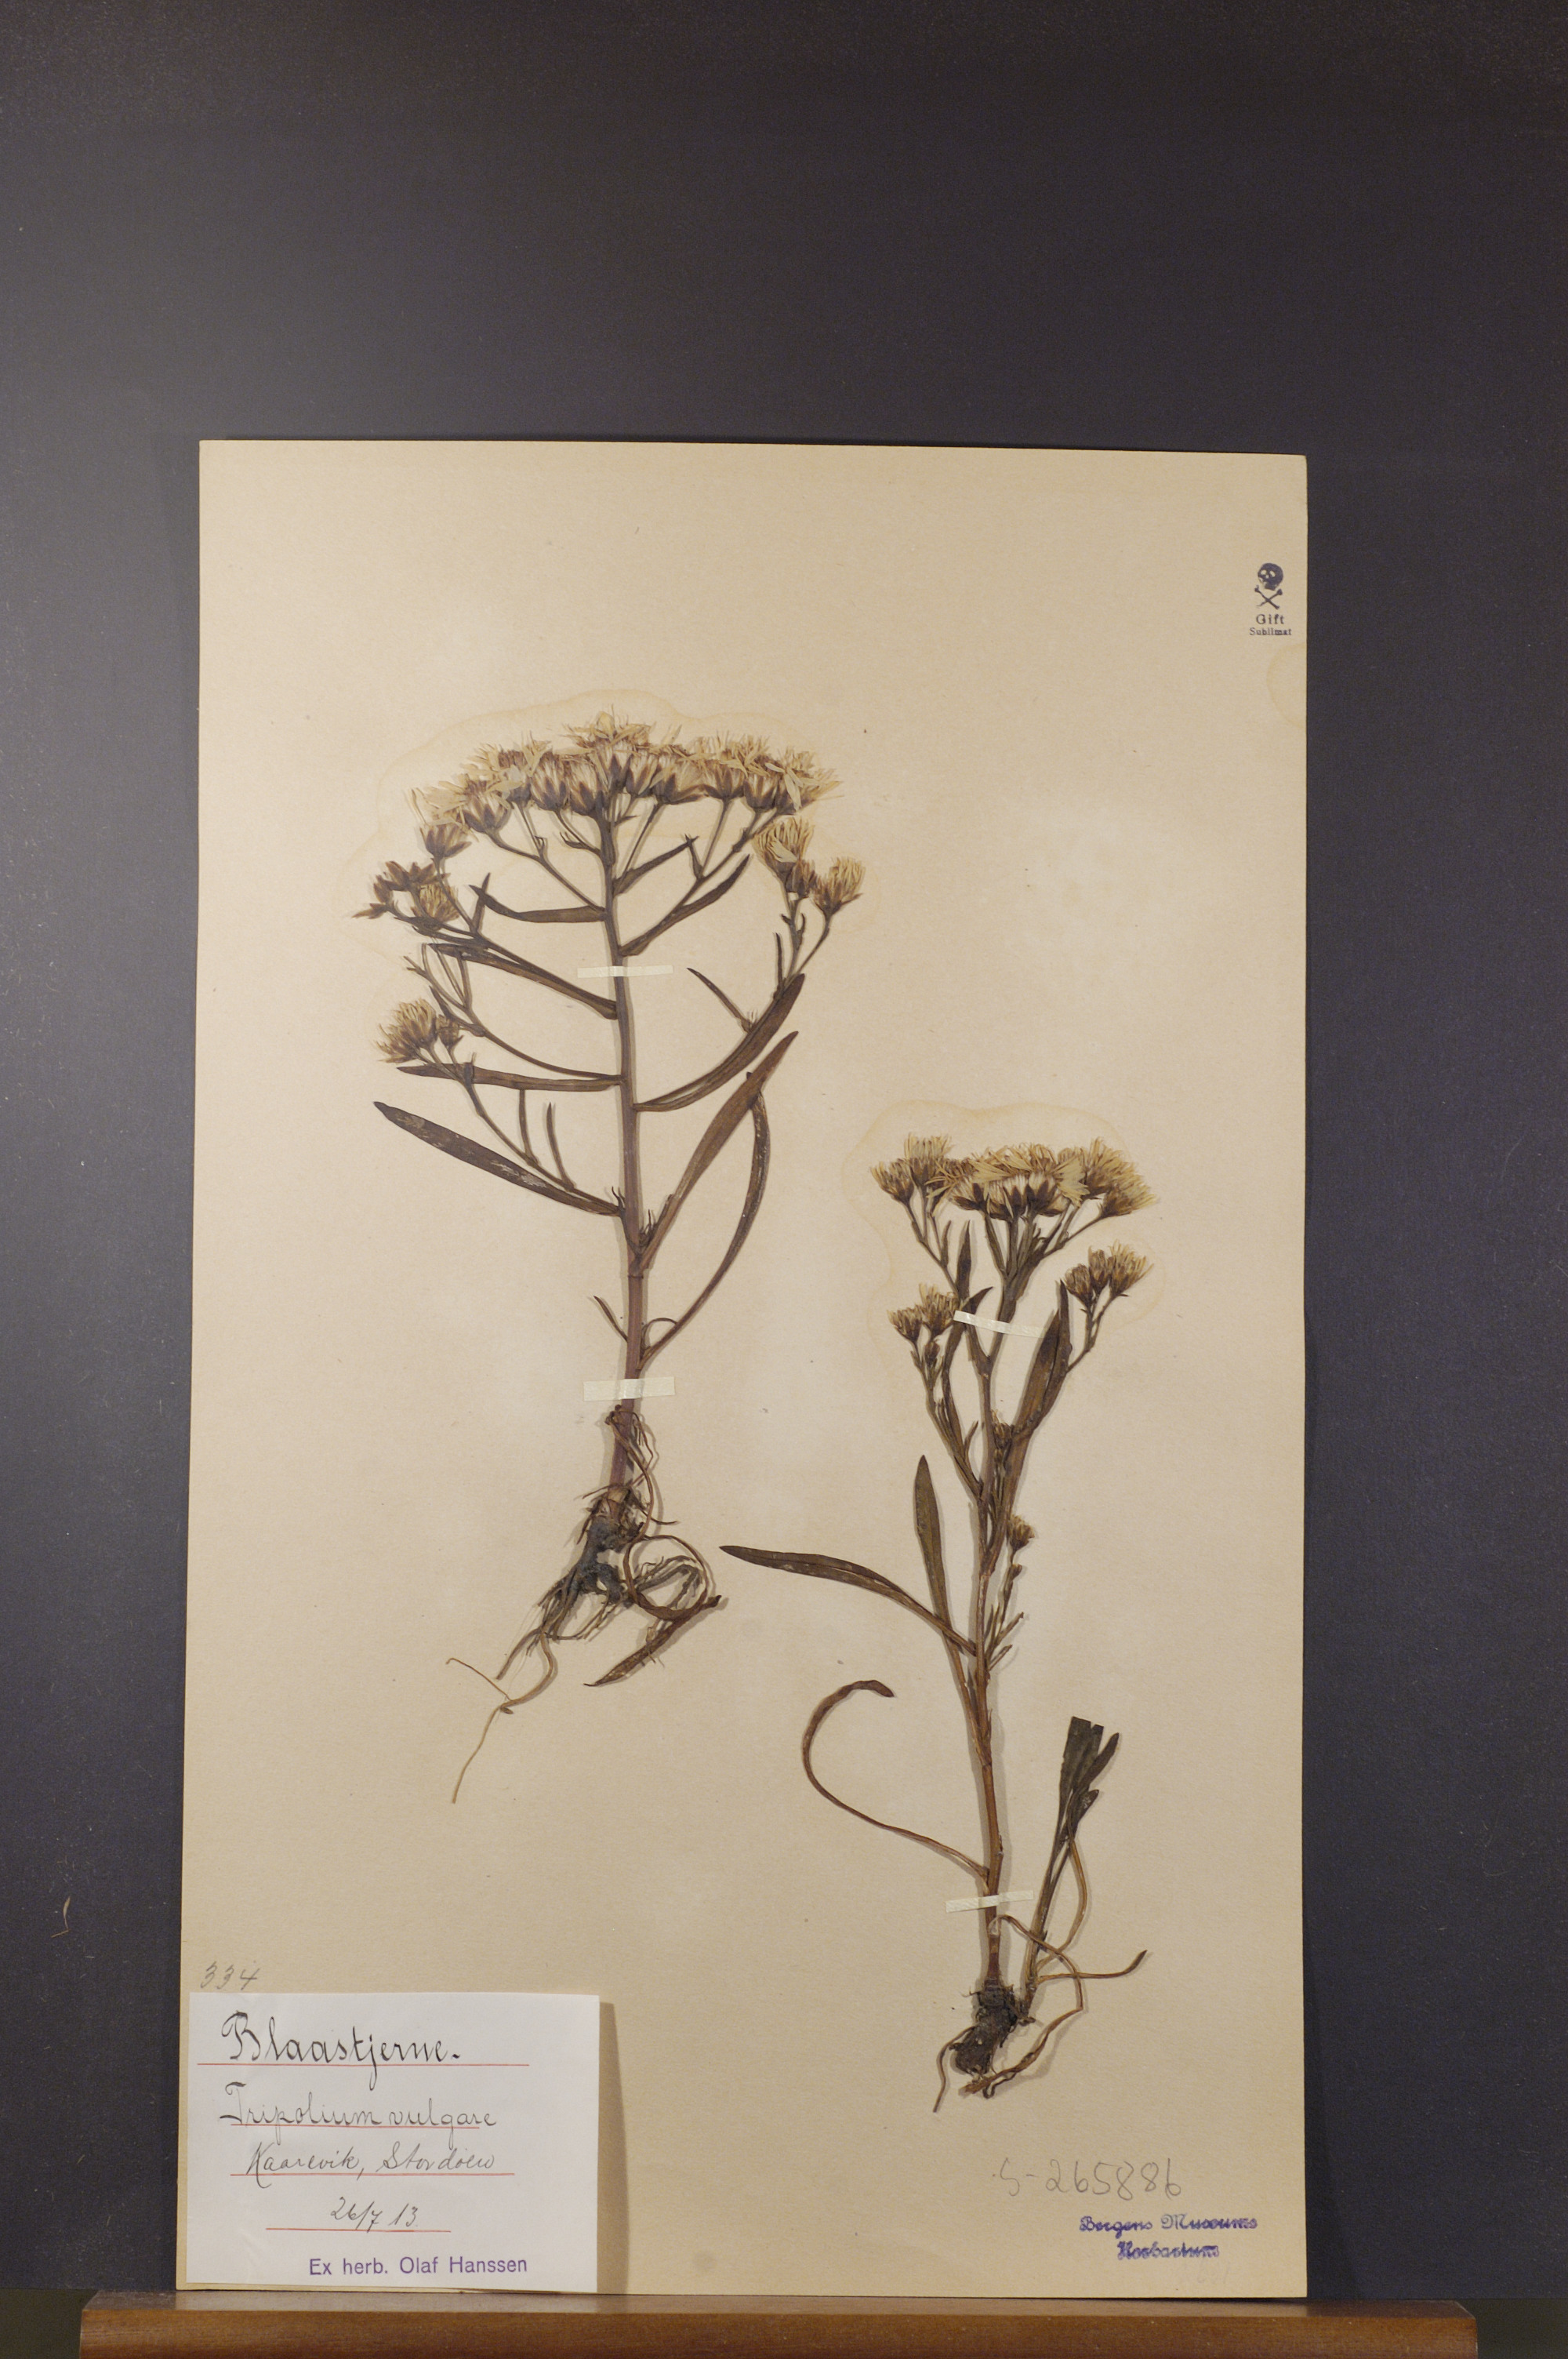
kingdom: Plantae
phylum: Tracheophyta
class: Magnoliopsida
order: Asterales
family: Asteraceae
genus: Tripolium
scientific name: Tripolium pannonicum
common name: Sea aster
